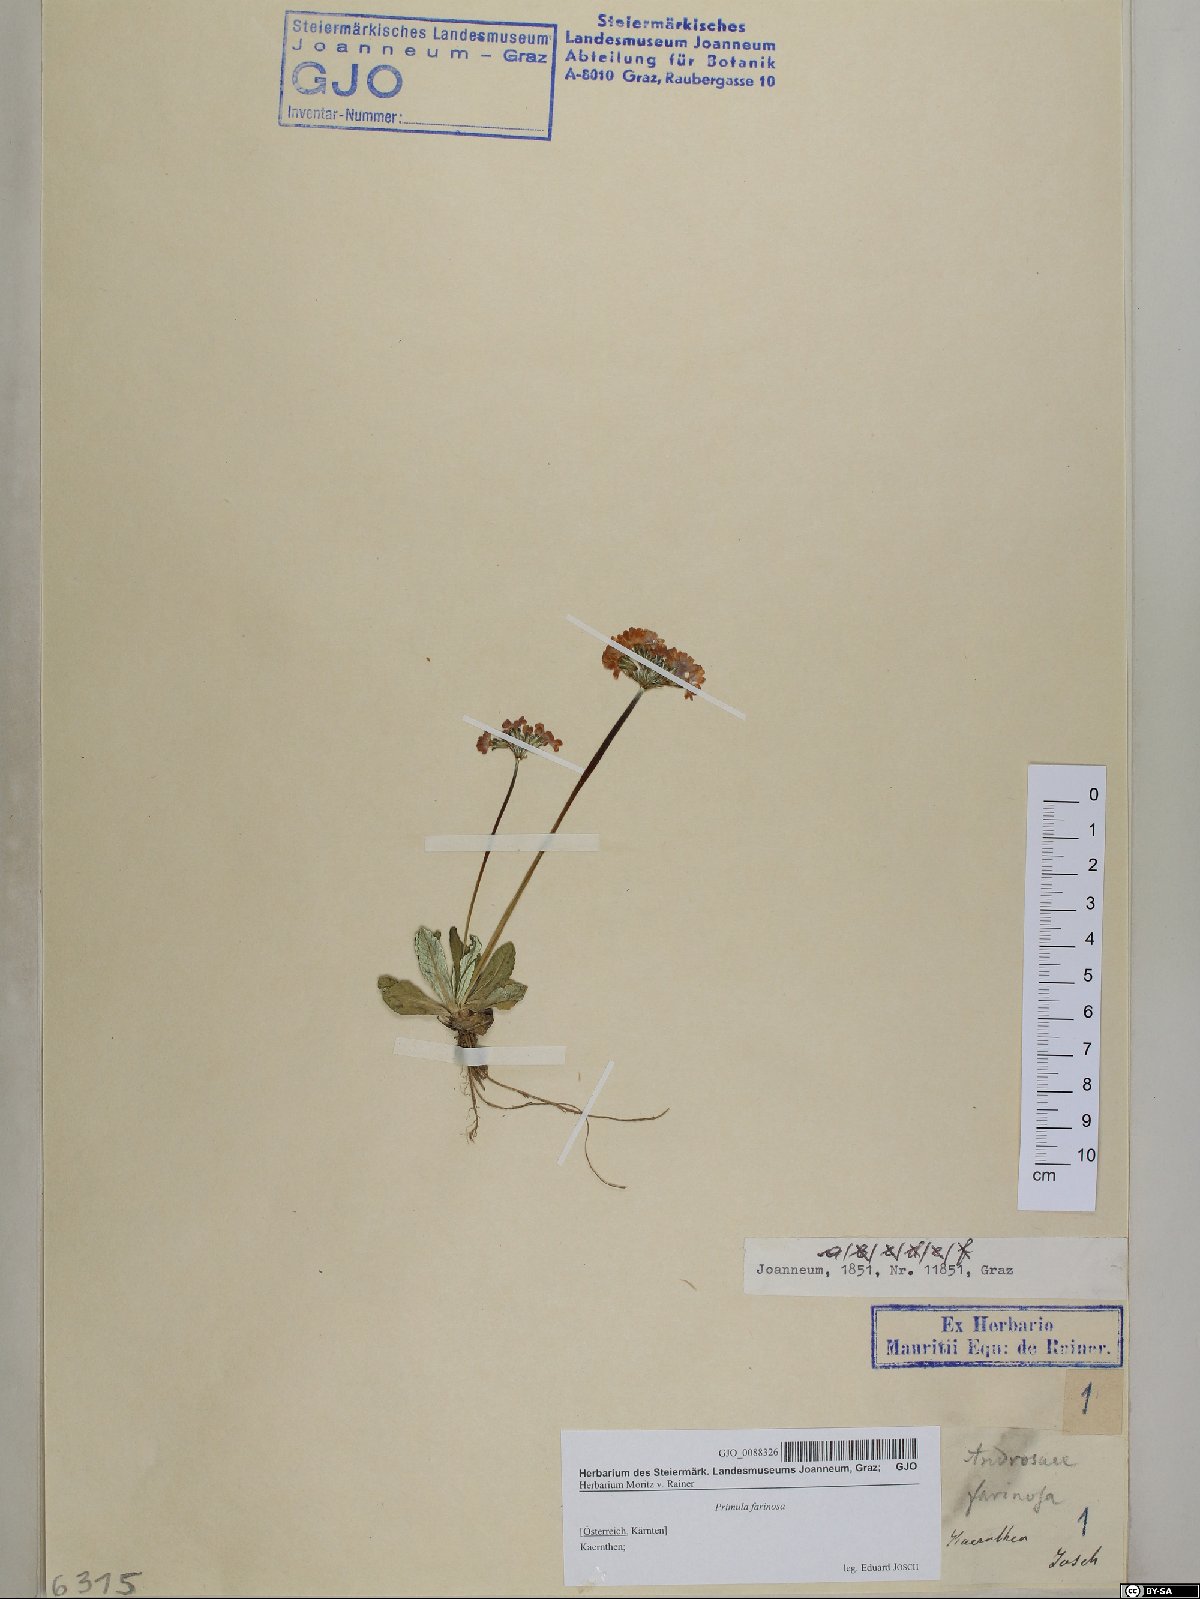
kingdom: Plantae
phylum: Tracheophyta
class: Magnoliopsida
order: Ericales
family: Primulaceae
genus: Primula
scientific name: Primula farinosa
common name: Bird's-eye primrose
